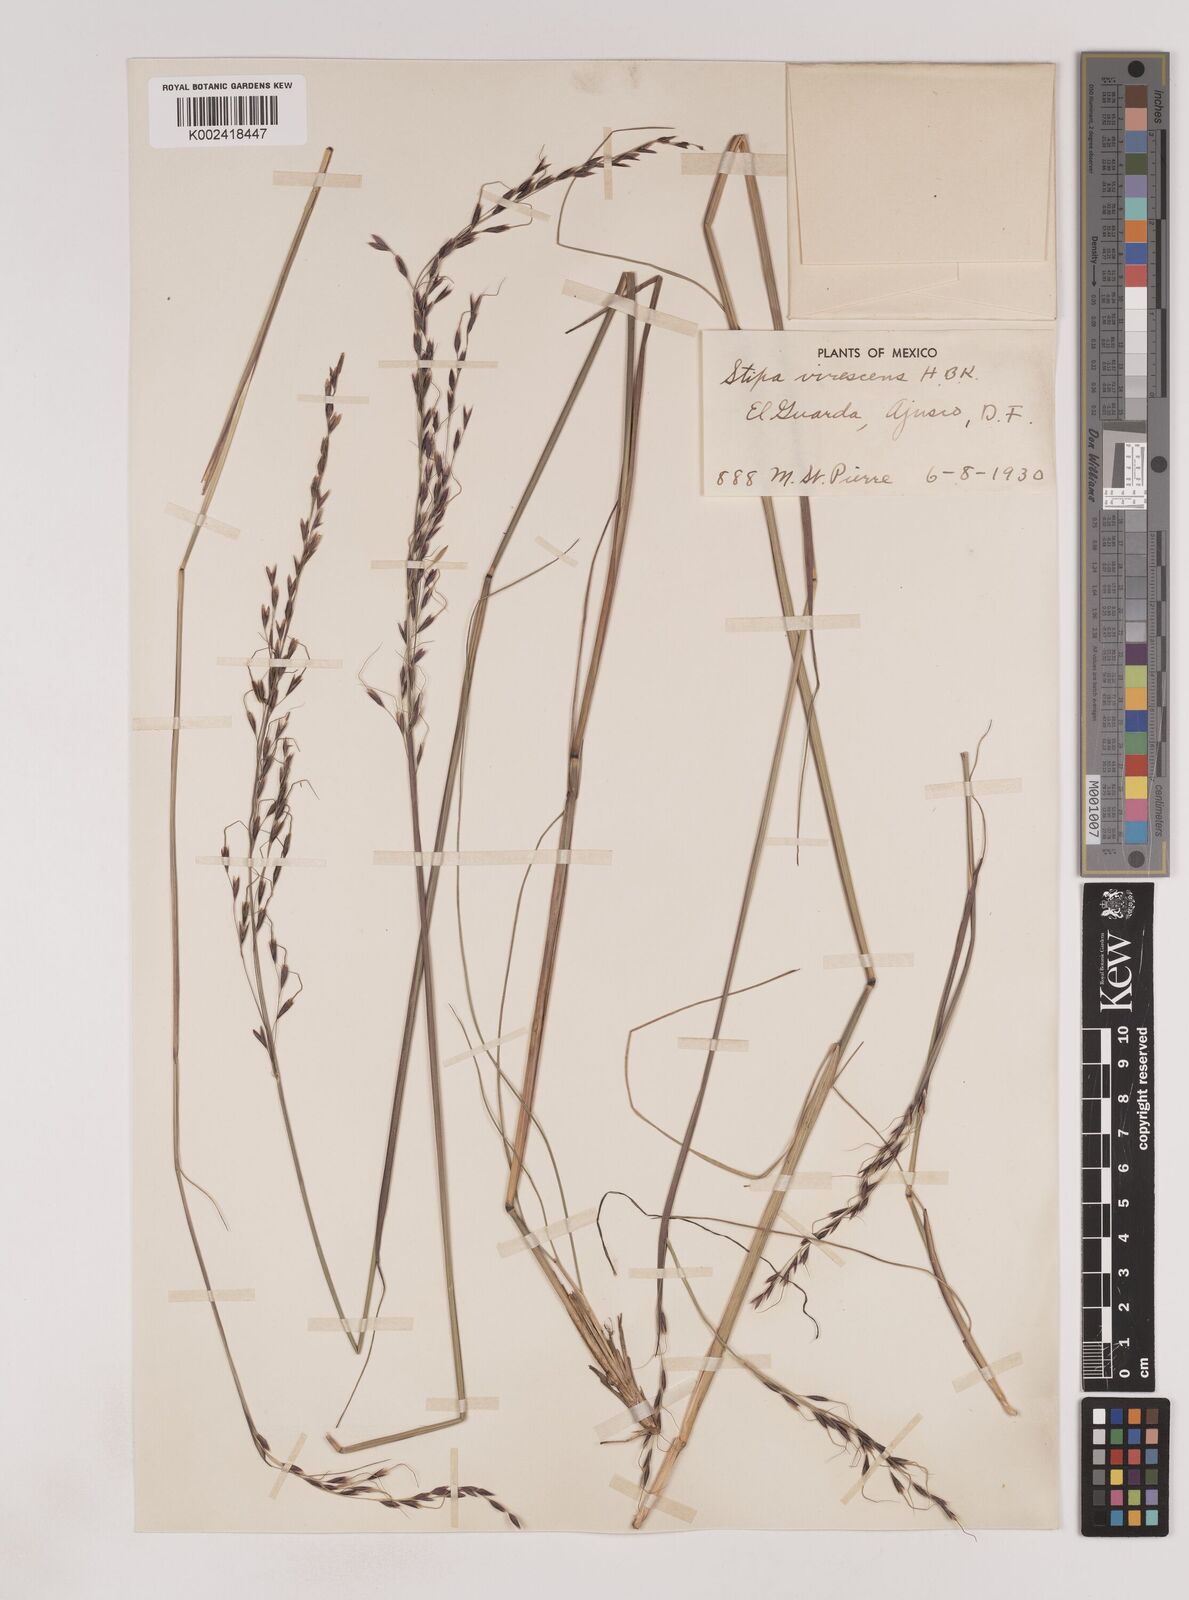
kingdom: Plantae
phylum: Tracheophyta
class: Liliopsida
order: Poales
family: Poaceae
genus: Piptochaetium
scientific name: Piptochaetium virescens
